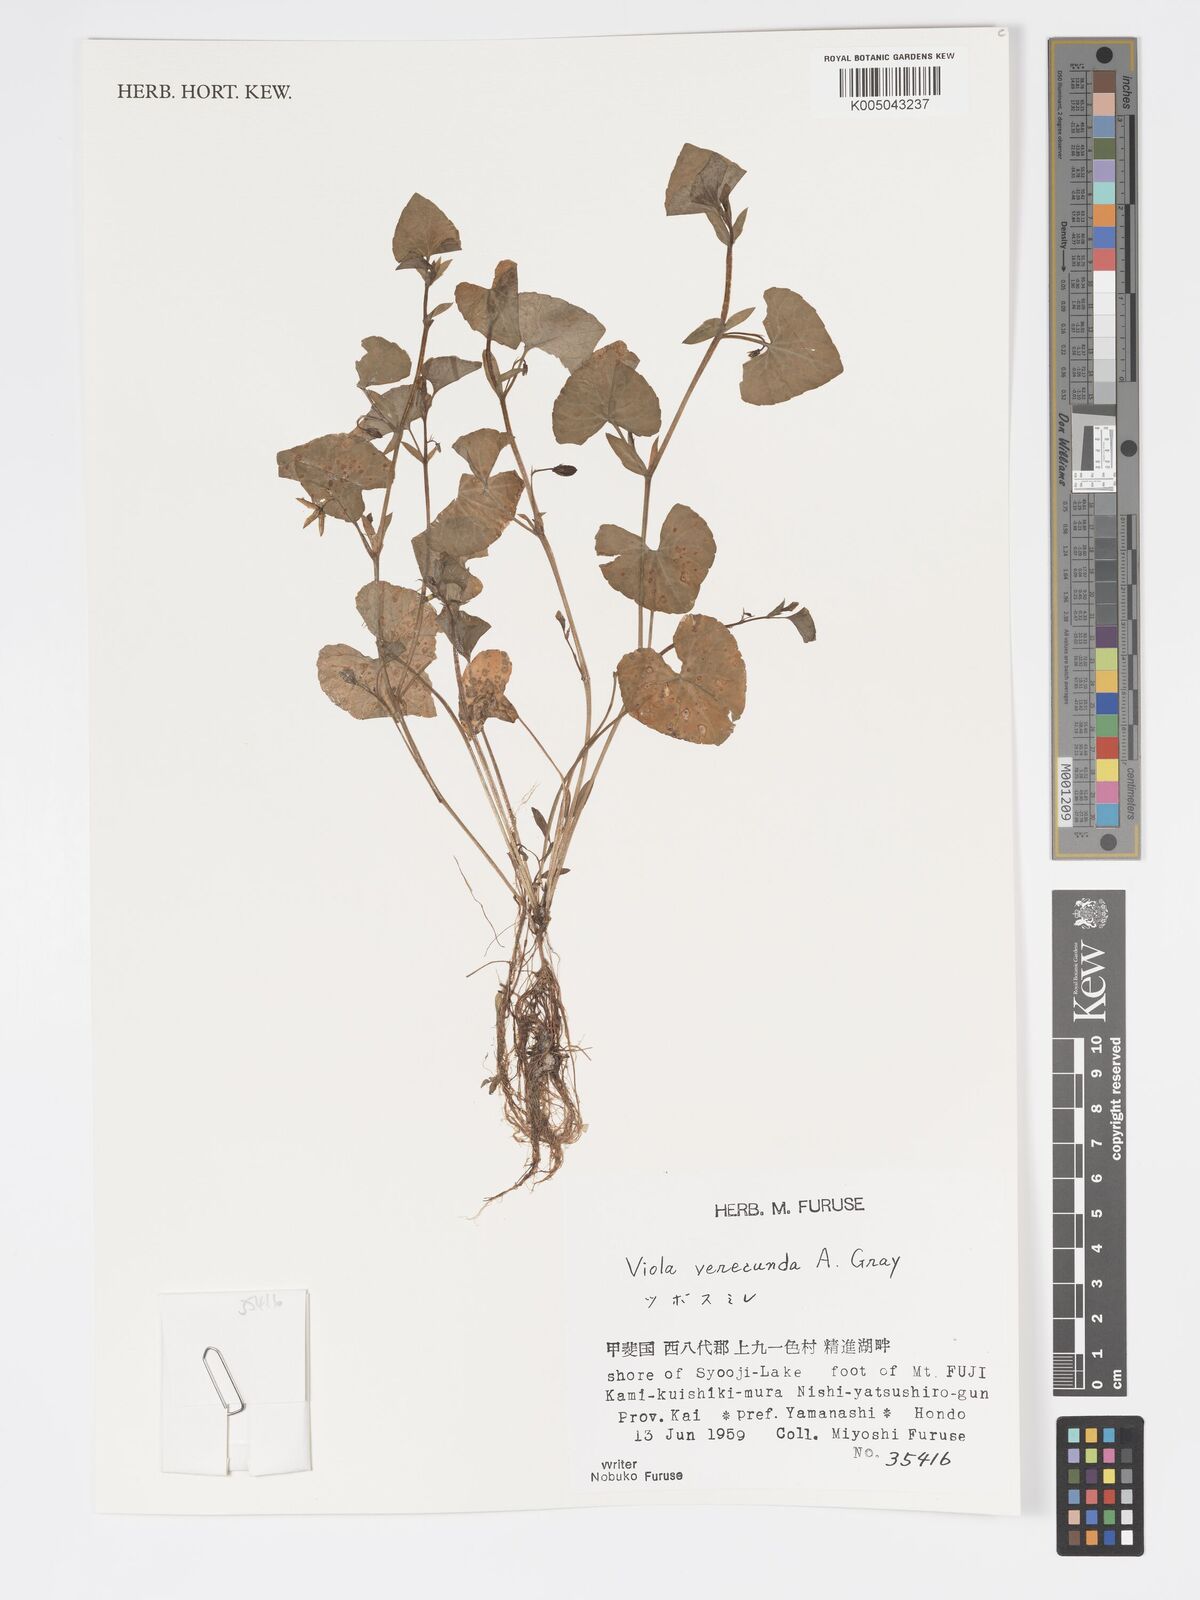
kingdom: Plantae
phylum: Tracheophyta
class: Magnoliopsida
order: Malpighiales
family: Violaceae
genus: Viola
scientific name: Viola hamiltoniana
